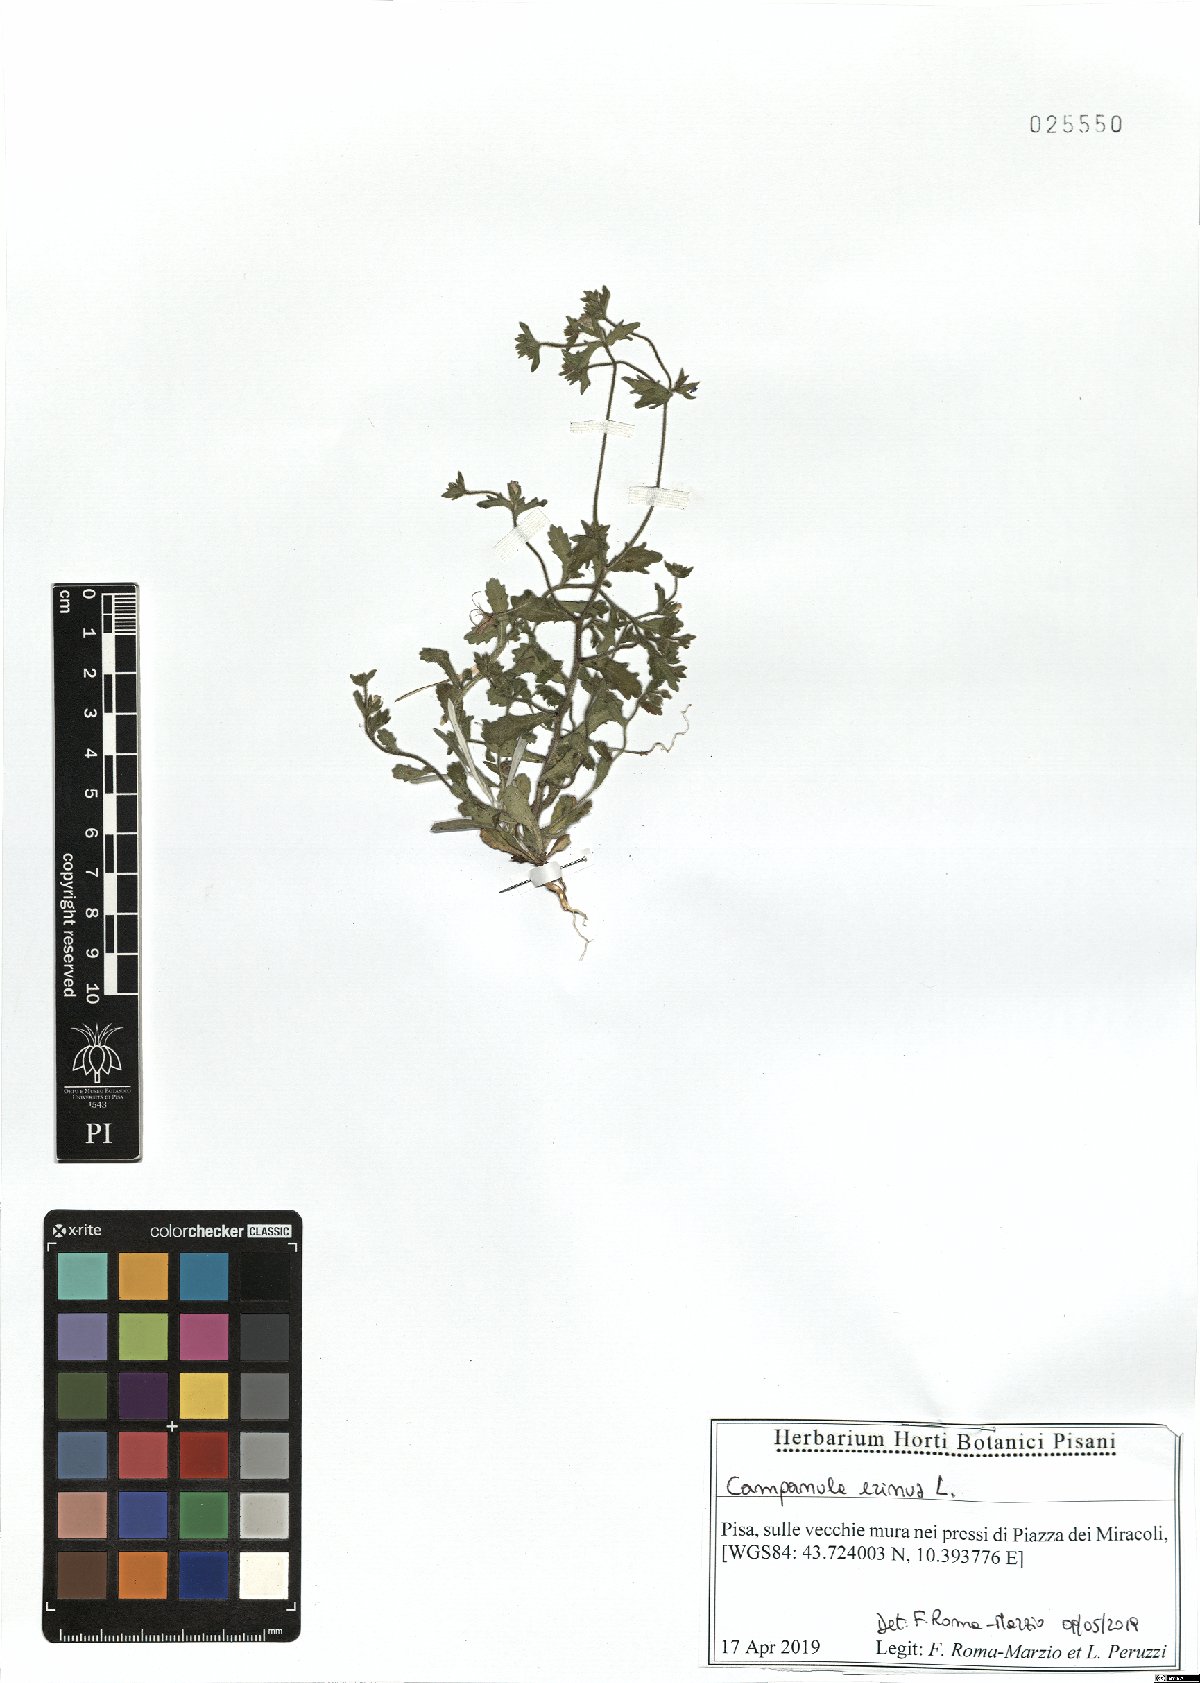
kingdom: Plantae
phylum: Tracheophyta
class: Magnoliopsida
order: Asterales
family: Campanulaceae
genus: Campanula
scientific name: Campanula erinus
